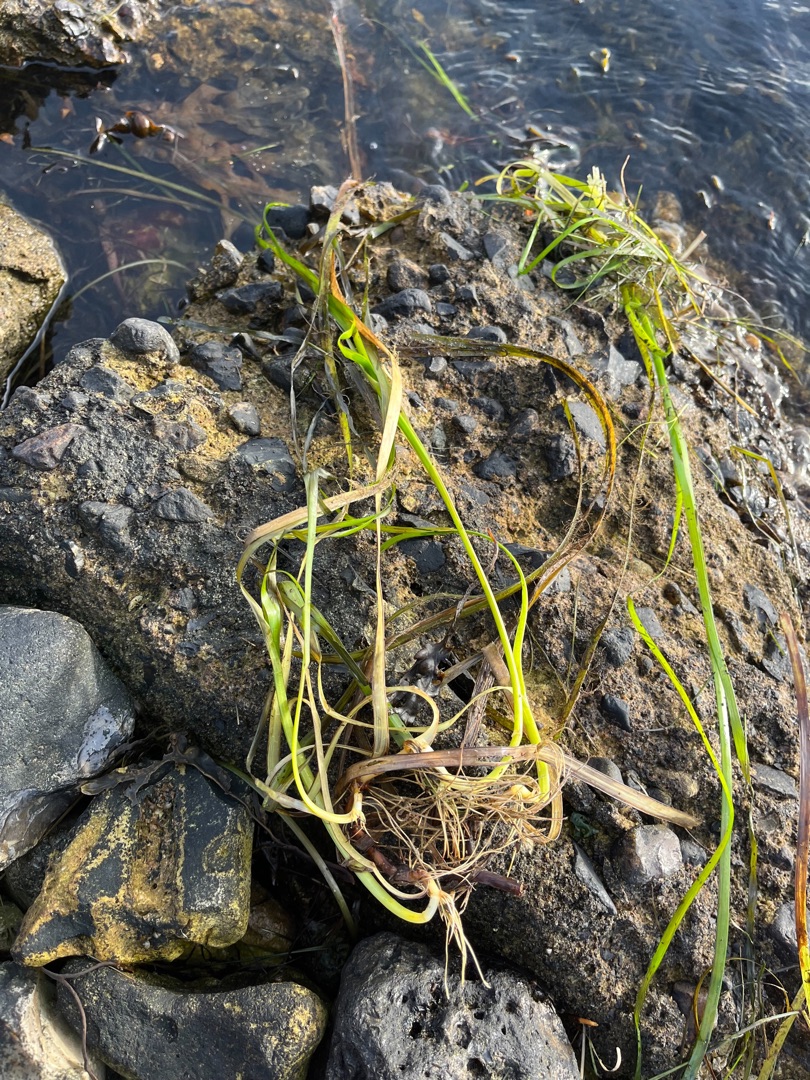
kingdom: Plantae
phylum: Tracheophyta
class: Liliopsida
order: Alismatales
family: Zosteraceae
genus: Zostera
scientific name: Zostera marina
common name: Almindelig bændeltang
